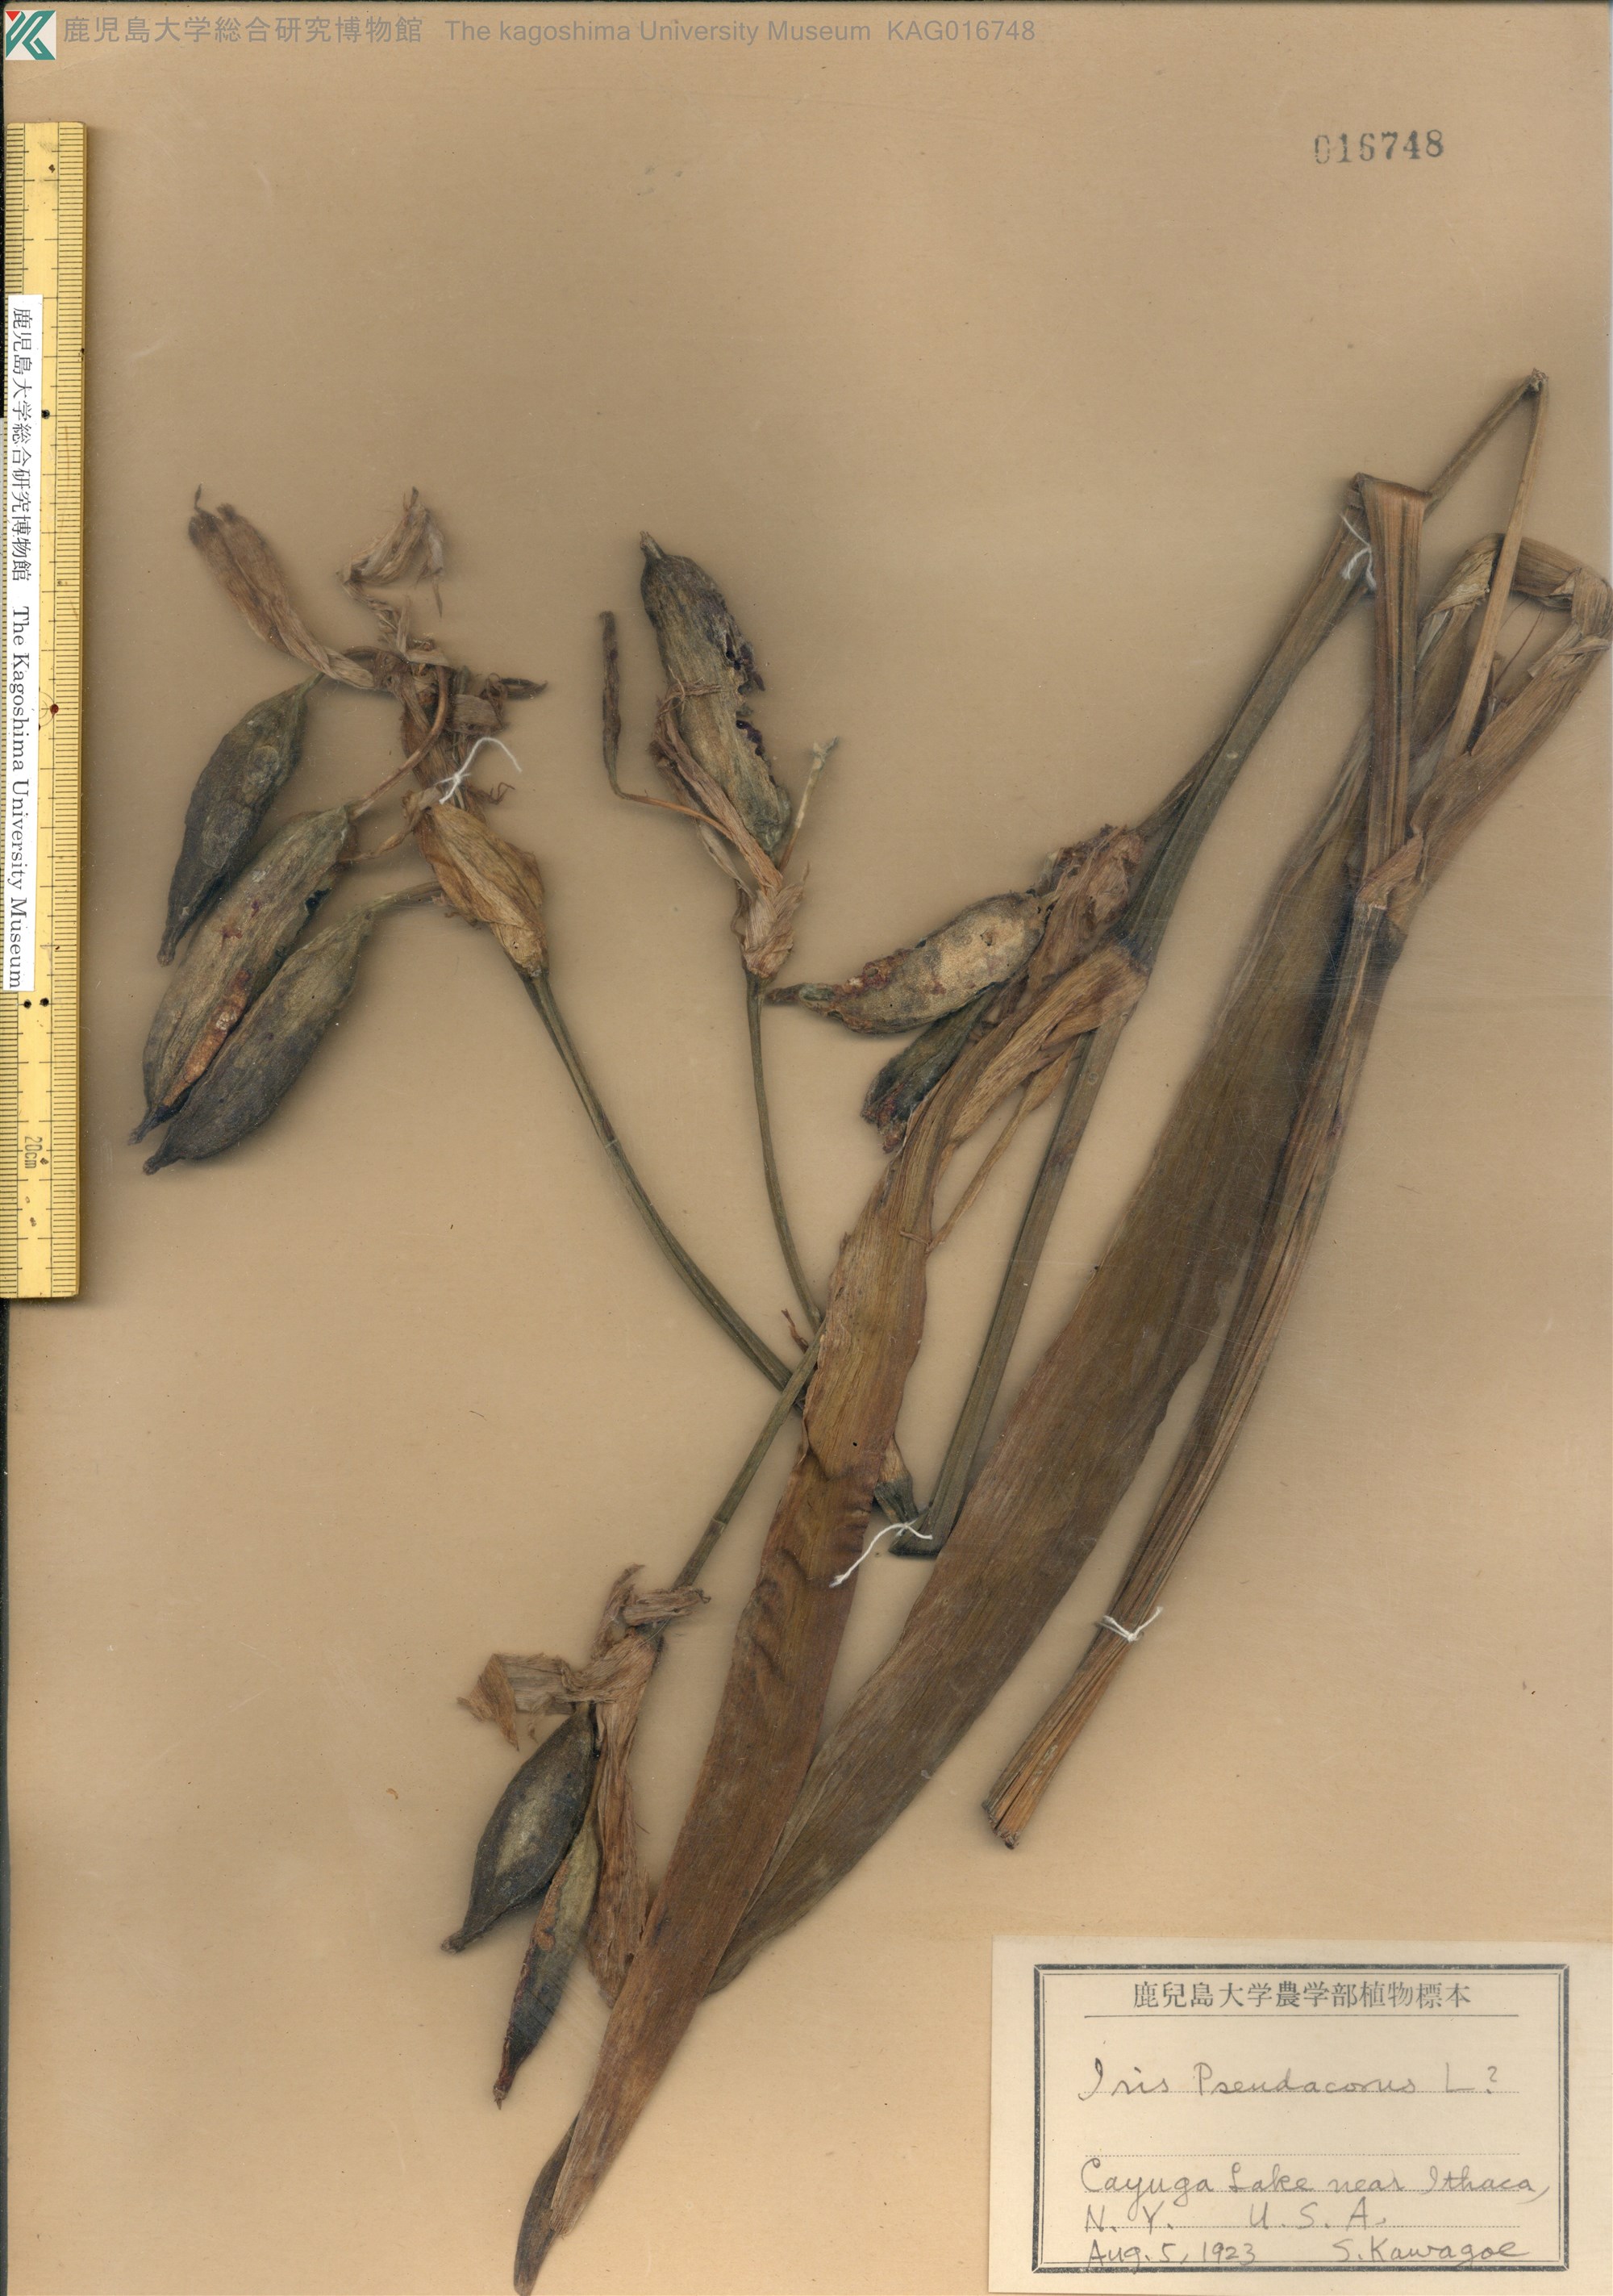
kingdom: Plantae
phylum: Tracheophyta
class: Liliopsida
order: Asparagales
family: Iridaceae
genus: Iris
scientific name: Iris pseudacorus
